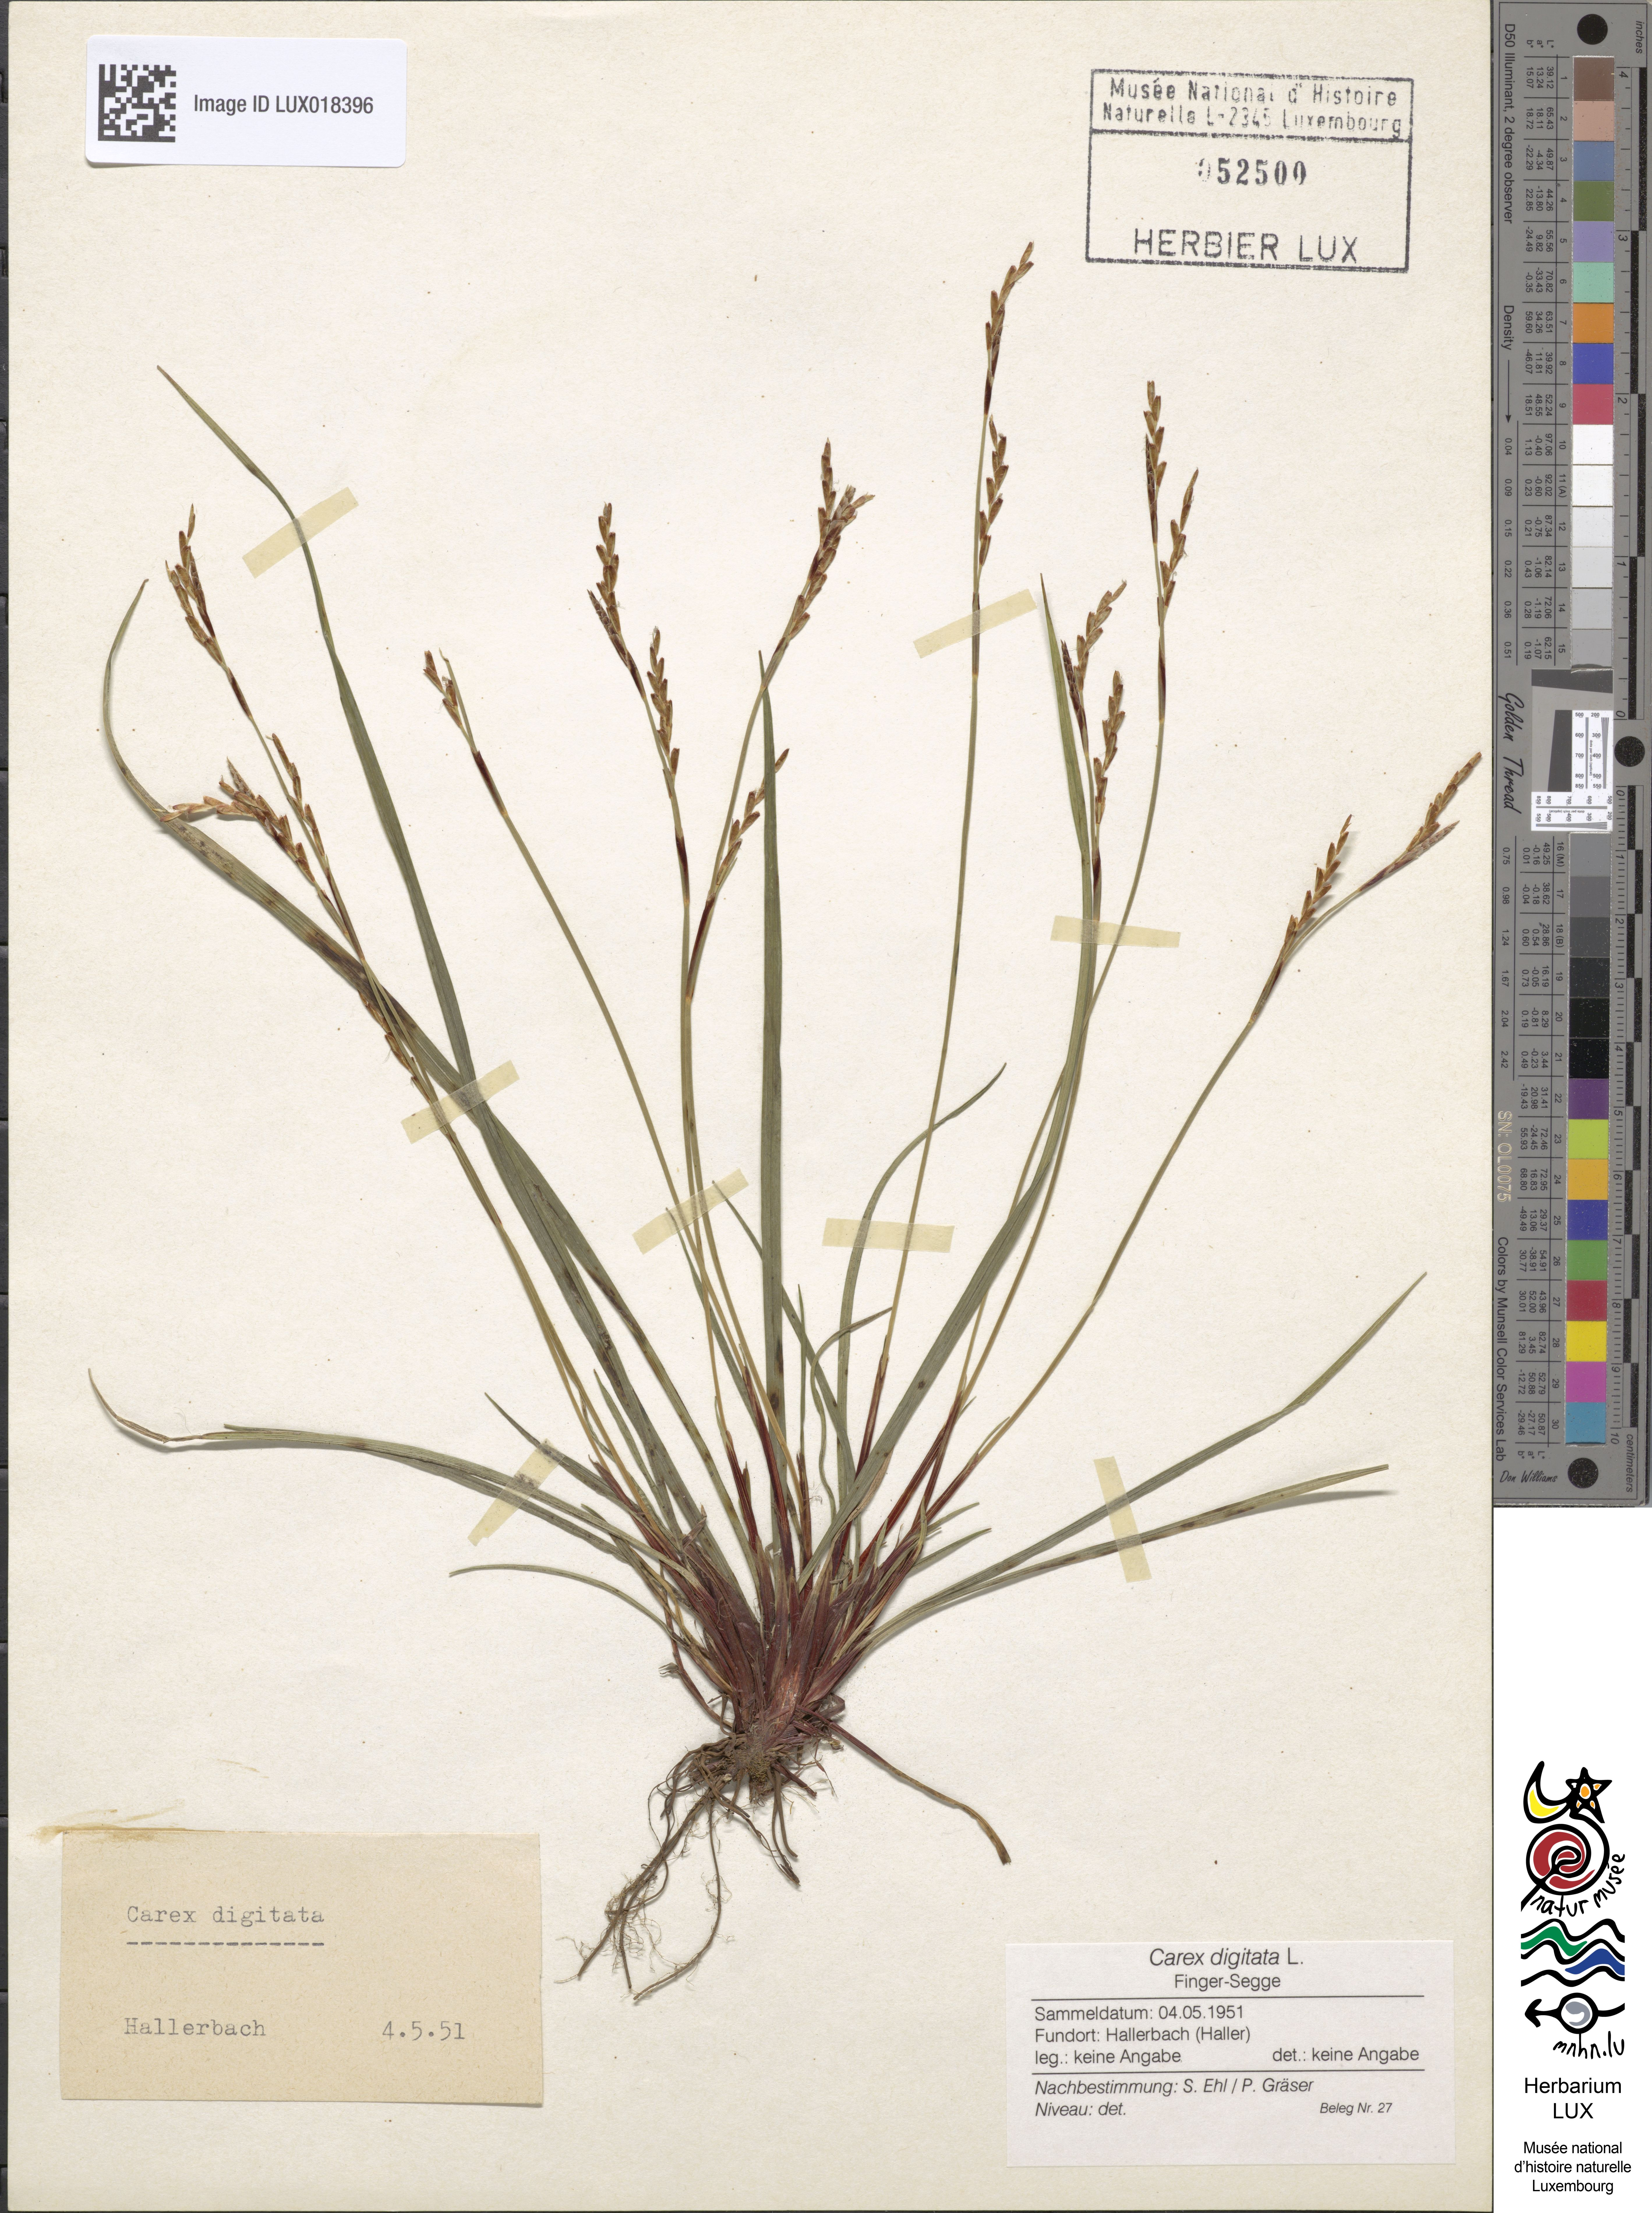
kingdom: Plantae
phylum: Tracheophyta
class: Liliopsida
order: Poales
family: Cyperaceae
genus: Carex
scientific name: Carex digitata
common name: Fingered sedge
